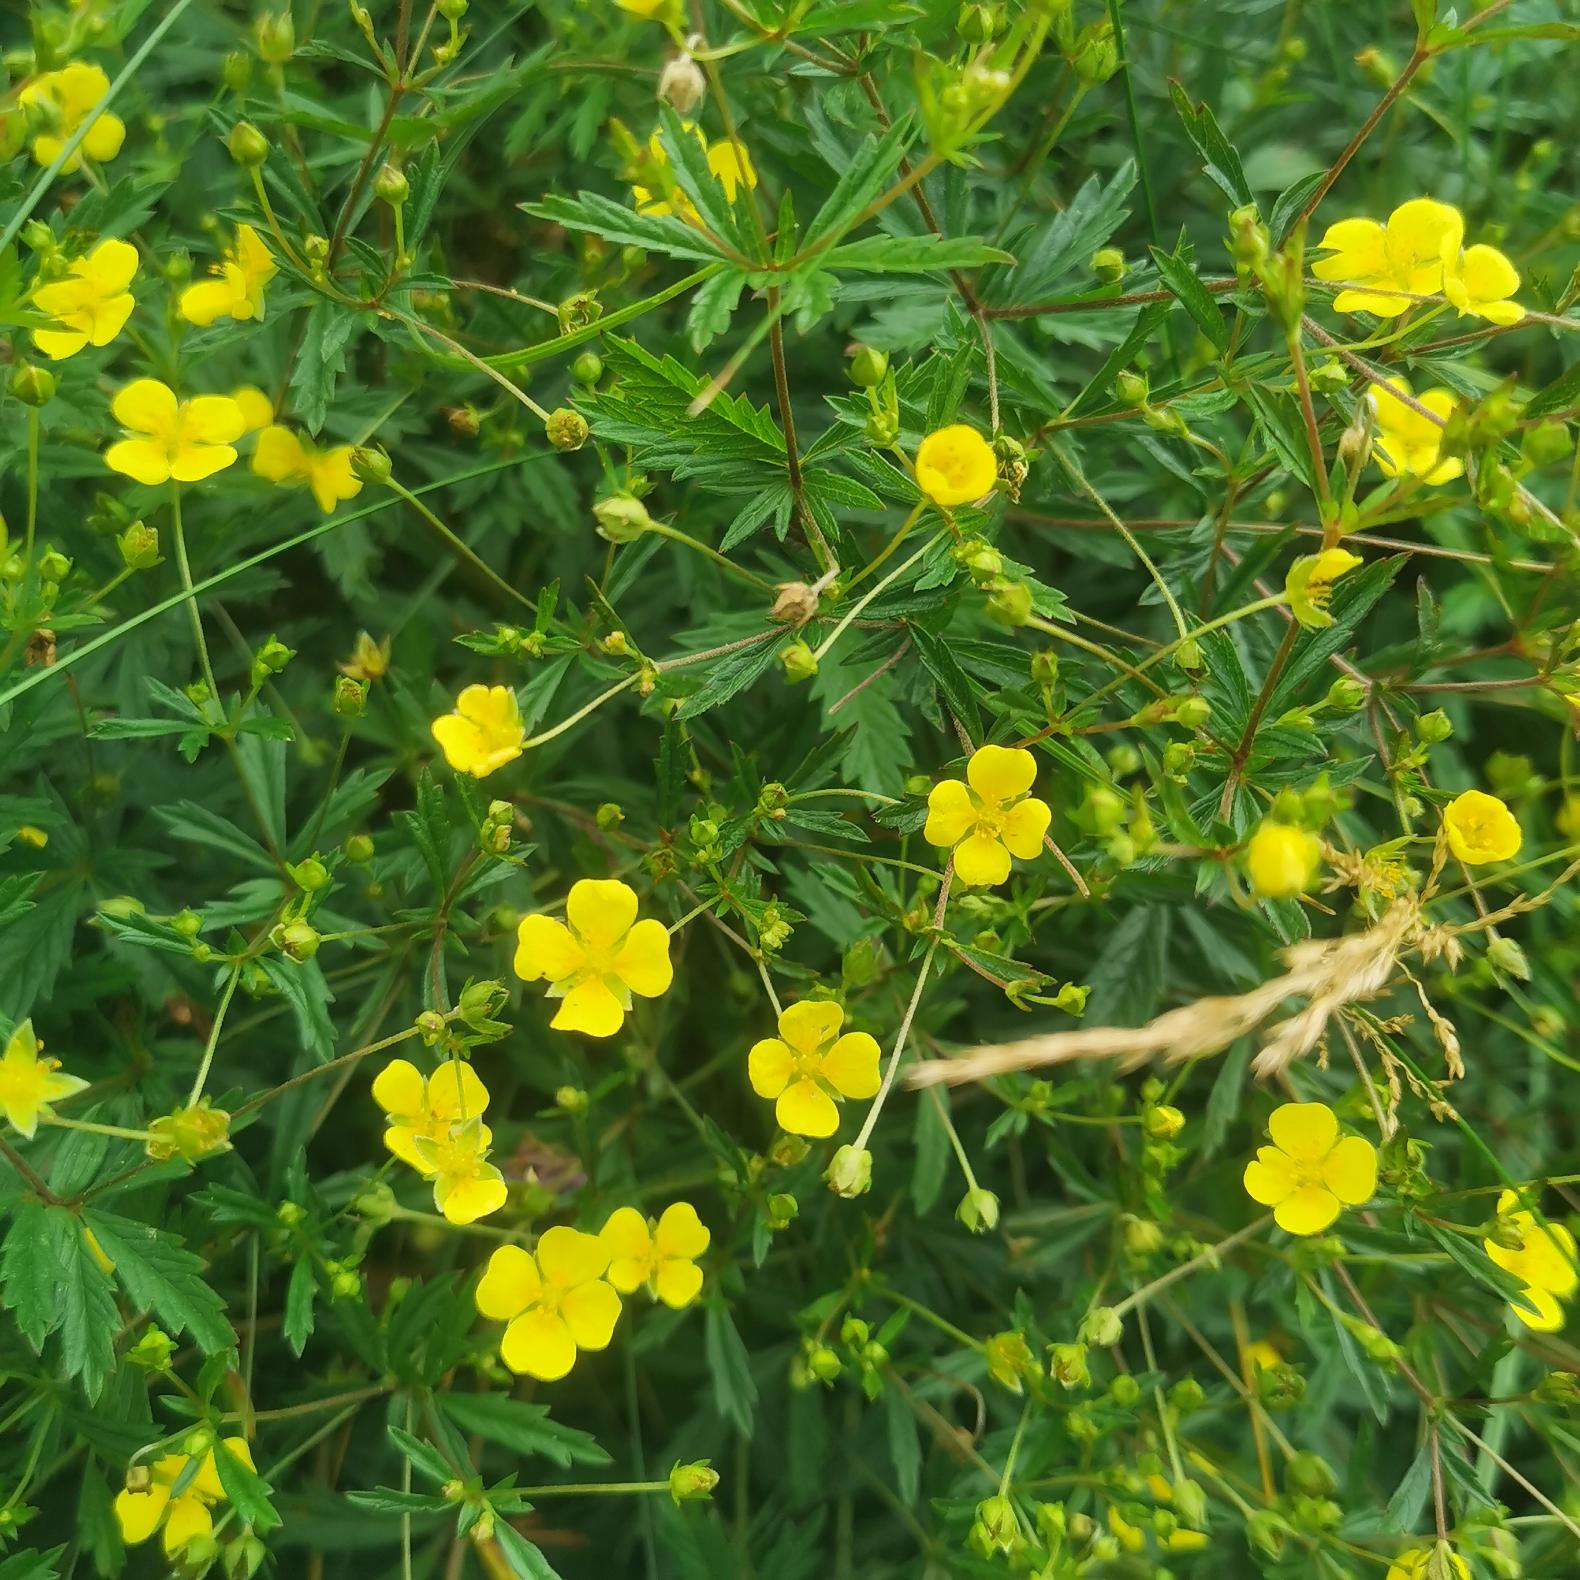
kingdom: Plantae
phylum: Tracheophyta
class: Magnoliopsida
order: Rosales
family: Rosaceae
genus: Potentilla
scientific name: Potentilla erecta
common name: Tormentil
